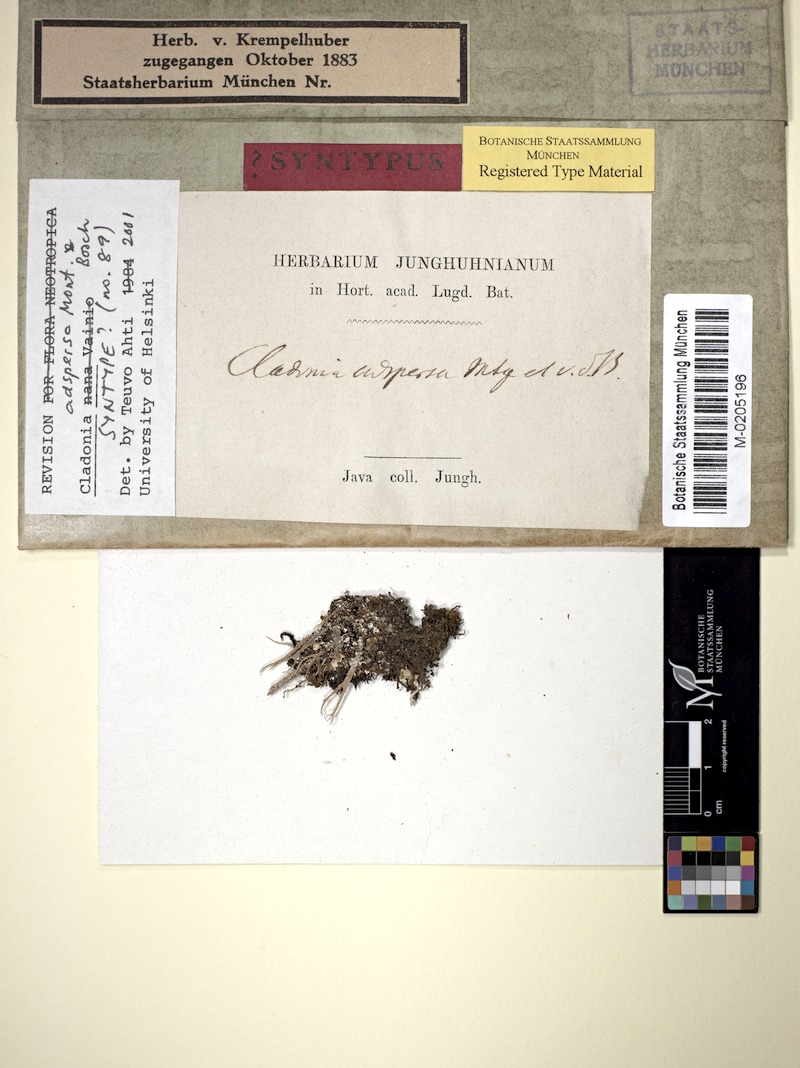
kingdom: Fungi
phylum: Ascomycota
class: Lecanoromycetes
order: Lecanorales
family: Cladoniaceae
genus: Cladonia
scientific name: Cladonia adspersa
